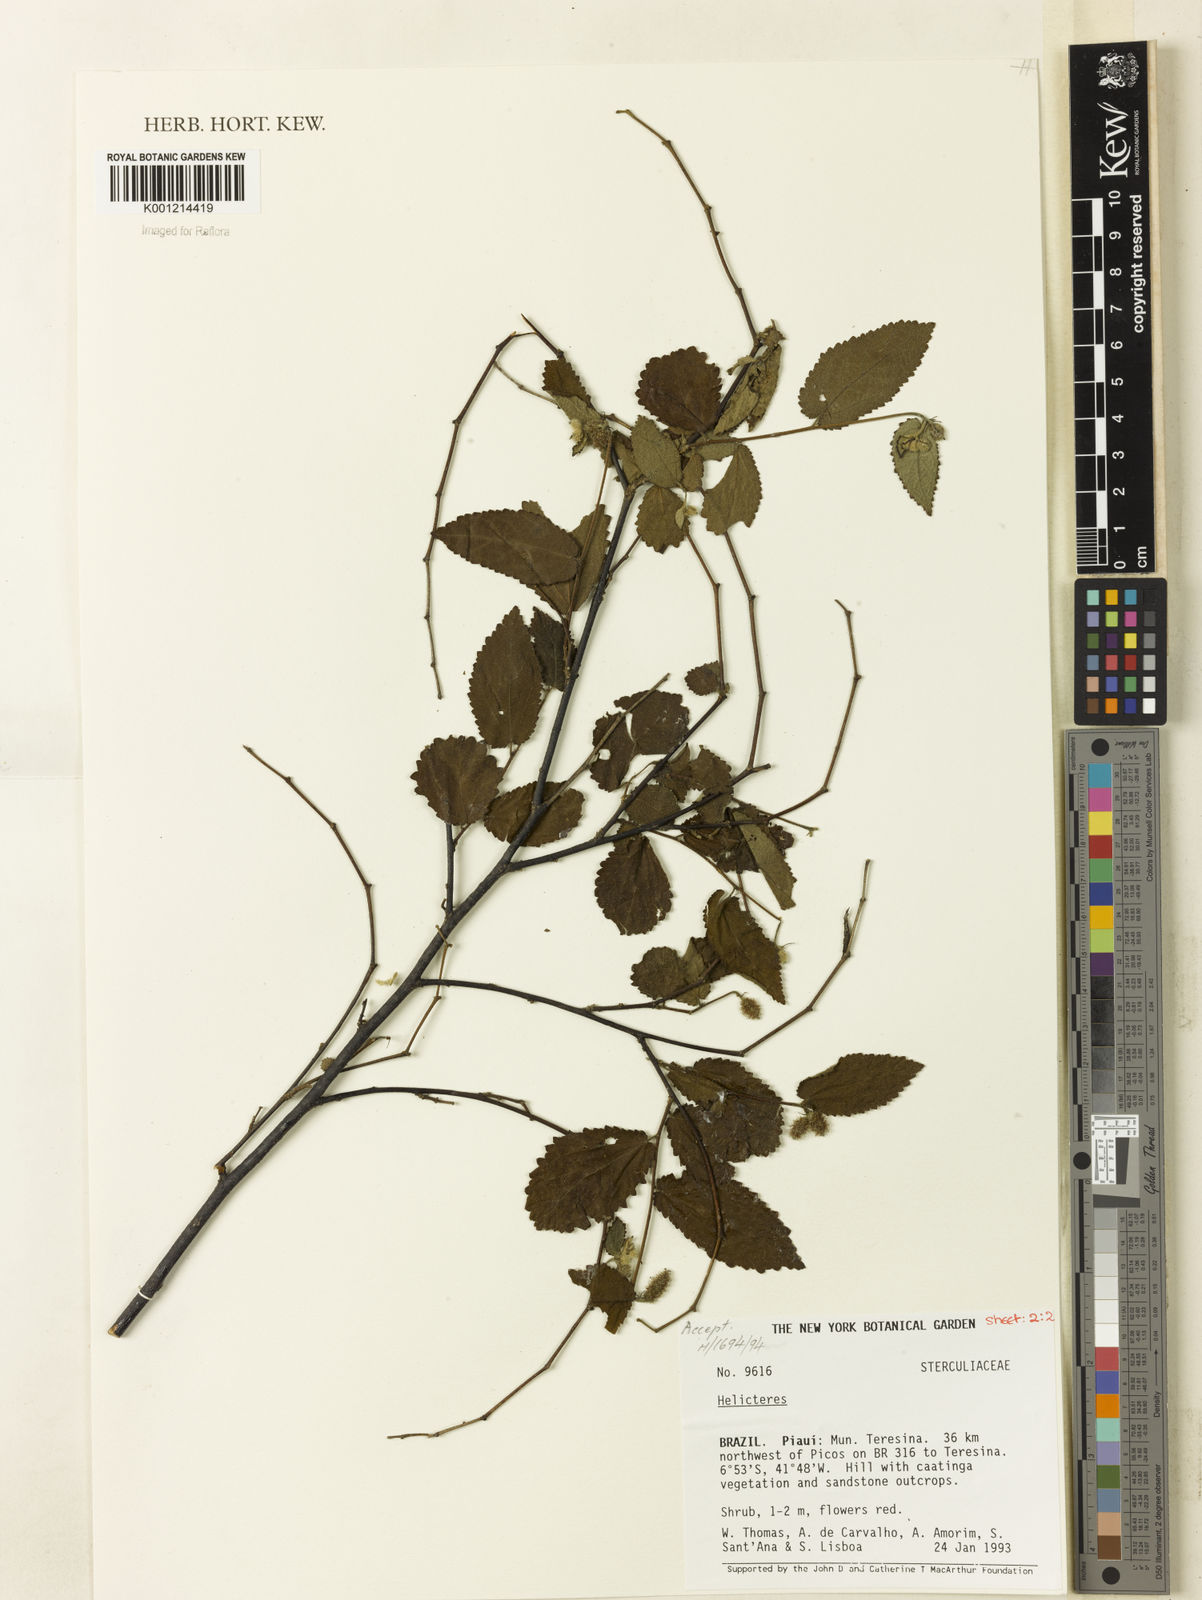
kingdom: Plantae
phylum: Tracheophyta
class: Magnoliopsida
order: Malvales
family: Malvaceae
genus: Helicteres
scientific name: Helicteres muscosa
